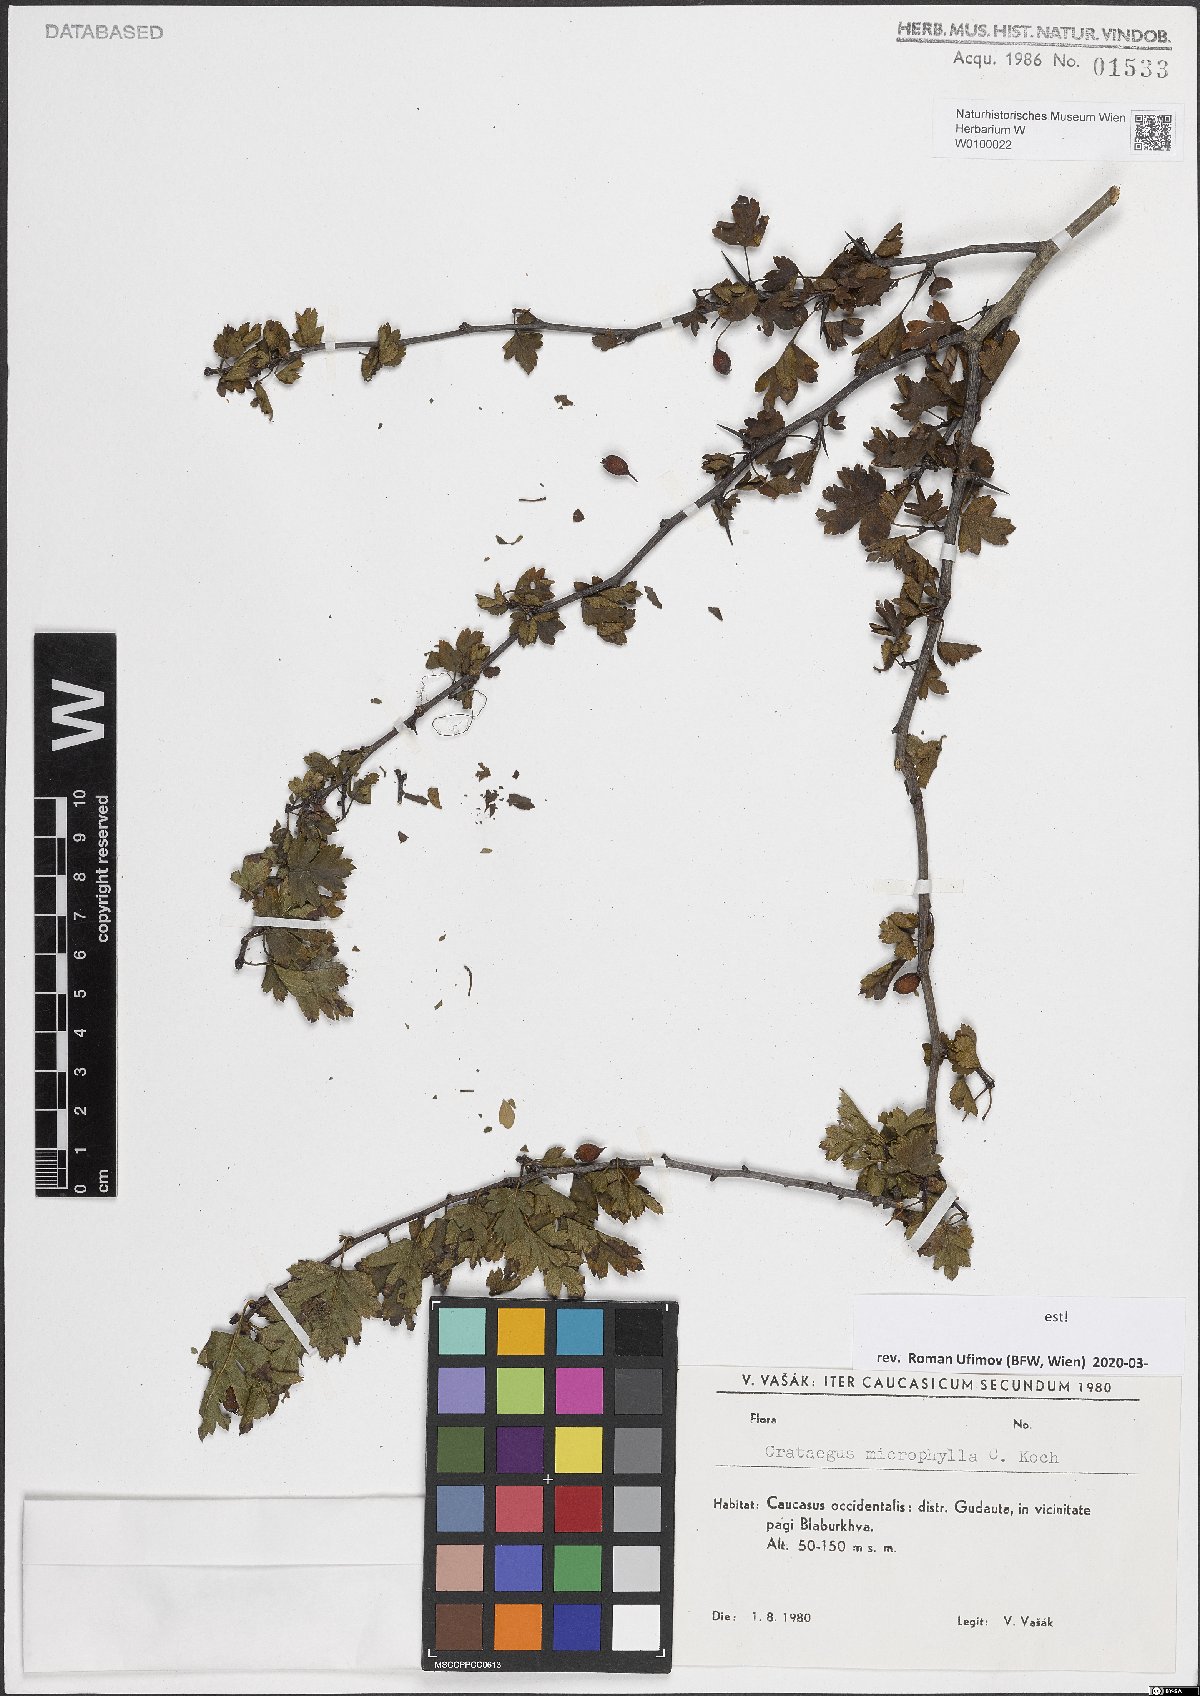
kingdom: Plantae
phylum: Tracheophyta
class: Magnoliopsida
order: Rosales
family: Rosaceae
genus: Crataegus
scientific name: Crataegus microphylla
